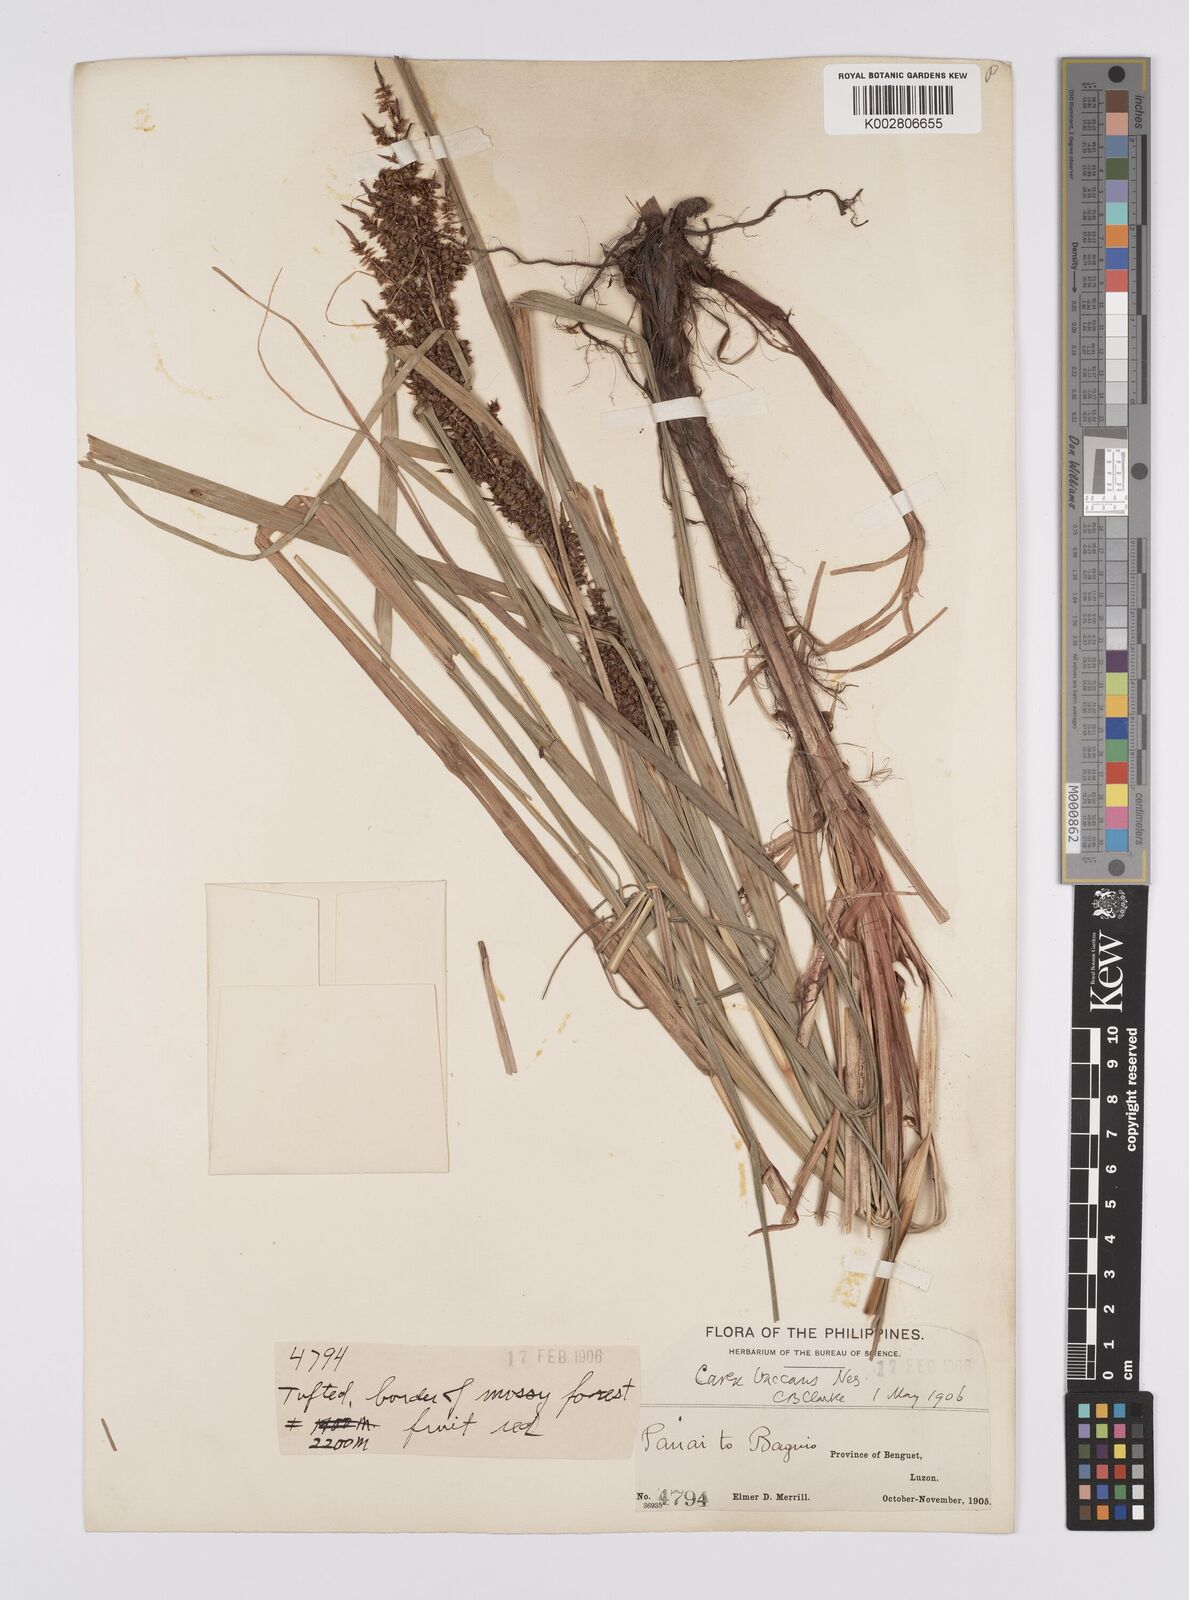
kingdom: Plantae
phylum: Tracheophyta
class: Liliopsida
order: Poales
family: Cyperaceae
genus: Carex
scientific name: Carex baccans
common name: Crimson seeded sedge
